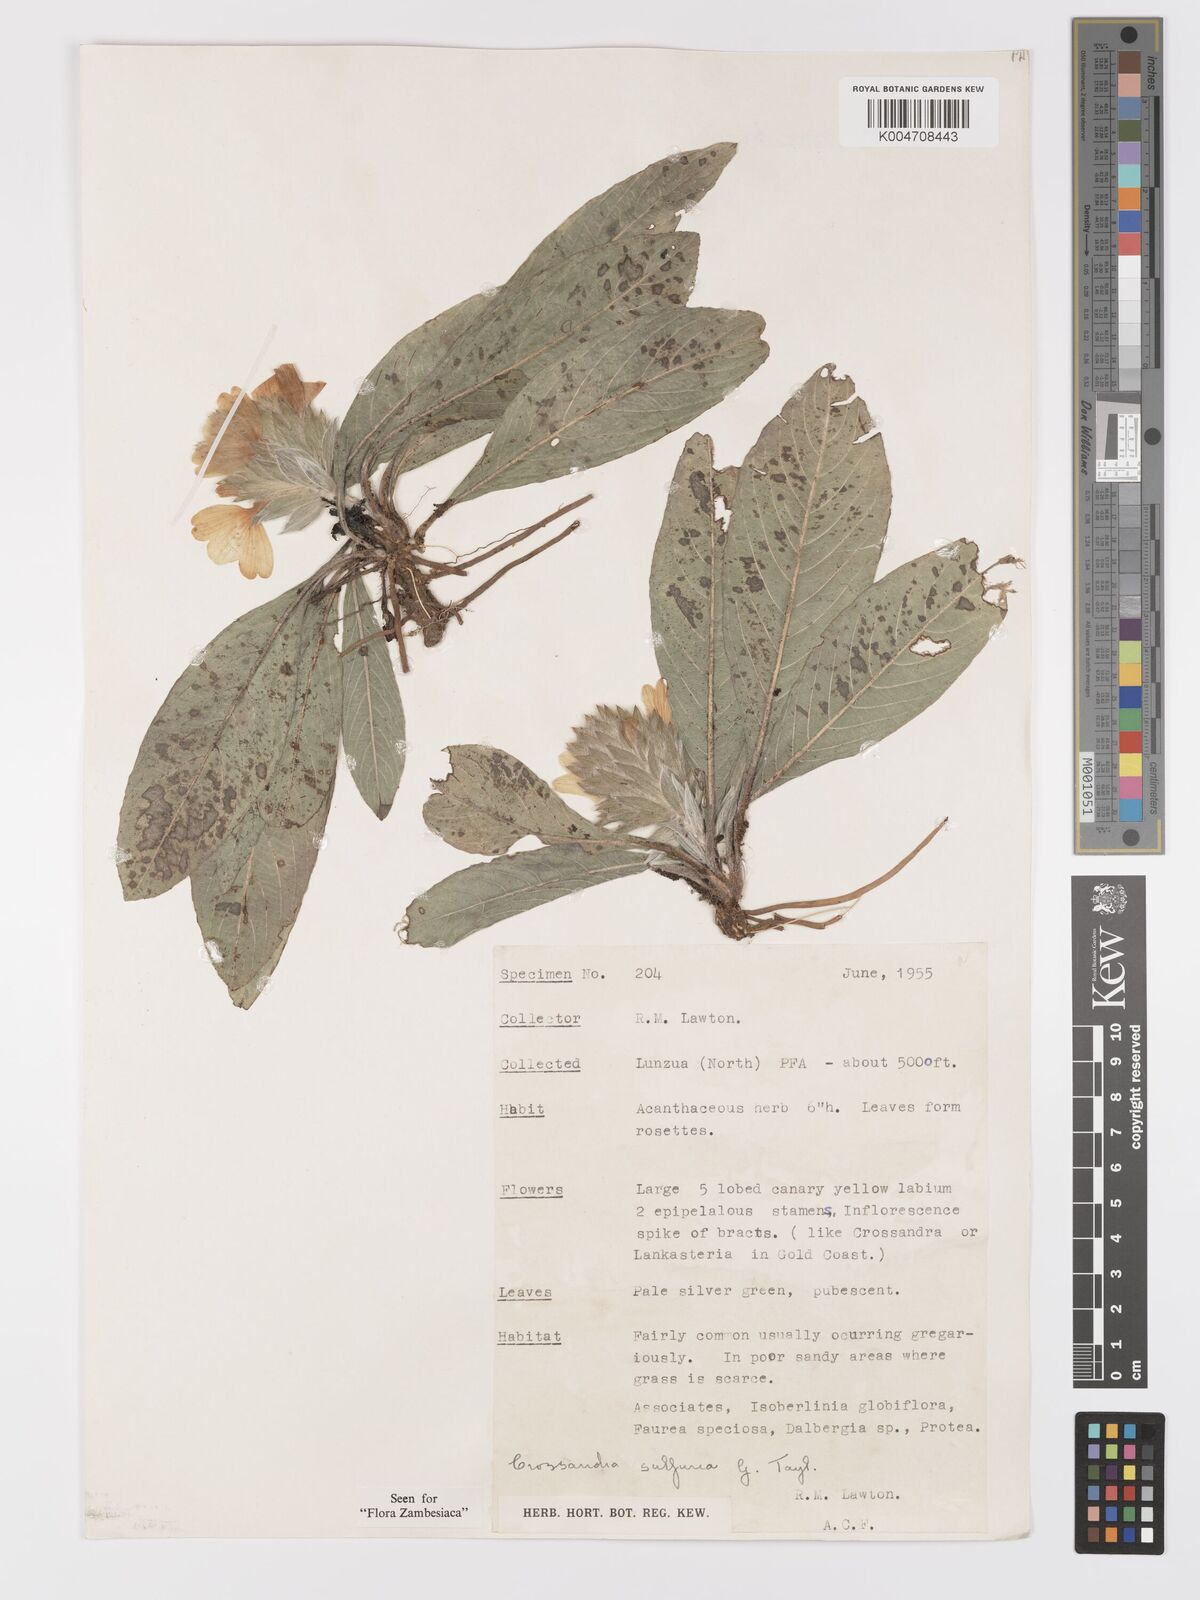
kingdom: Plantae
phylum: Tracheophyta
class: Magnoliopsida
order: Lamiales
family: Acanthaceae
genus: Crossandra
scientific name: Crossandra sulphurea
